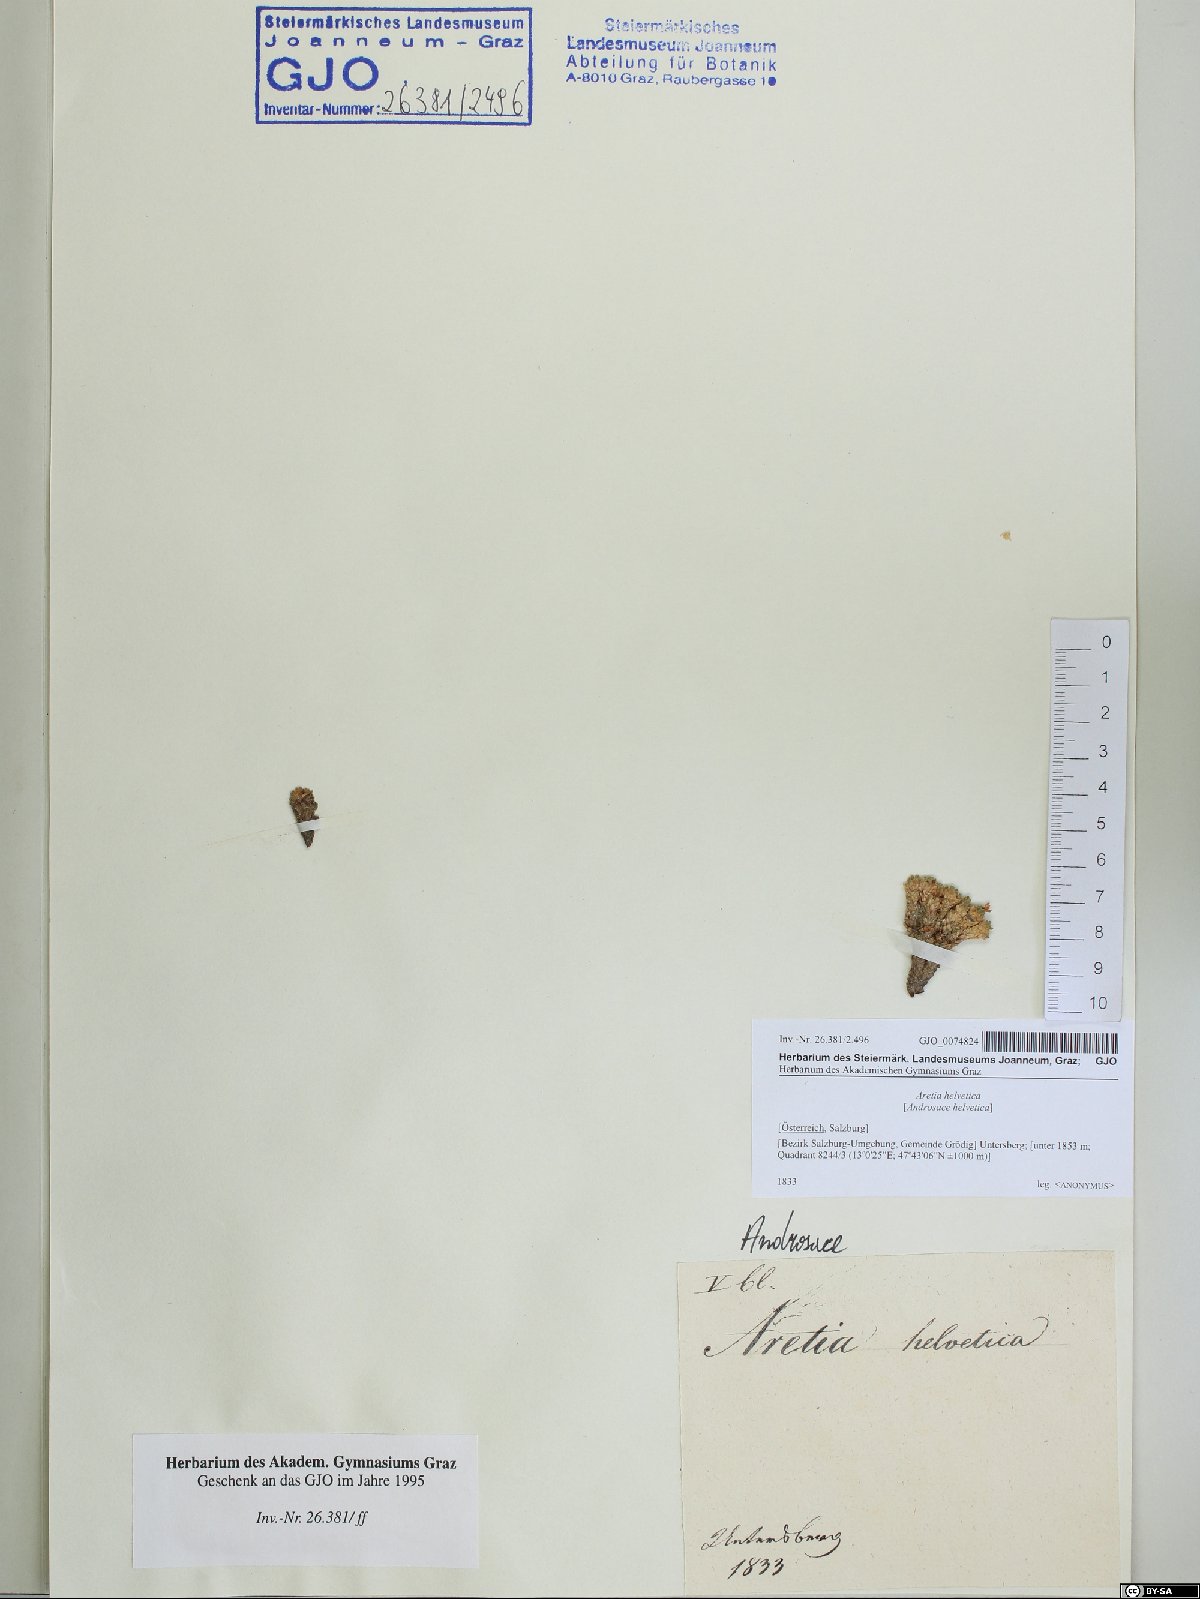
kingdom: Plantae
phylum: Tracheophyta
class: Magnoliopsida
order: Ericales
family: Primulaceae
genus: Androsace
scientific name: Androsace helvetica
